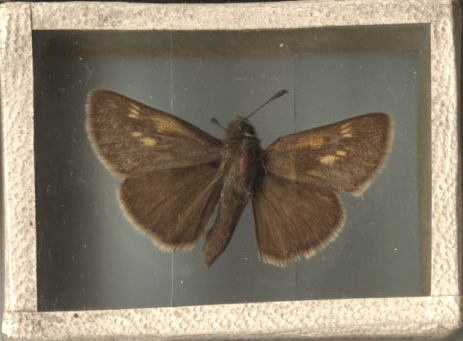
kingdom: Animalia
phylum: Arthropoda
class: Insecta
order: Lepidoptera
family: Hesperiidae
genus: Polites
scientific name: Polites themistocles
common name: Tawny-edged Skipper
